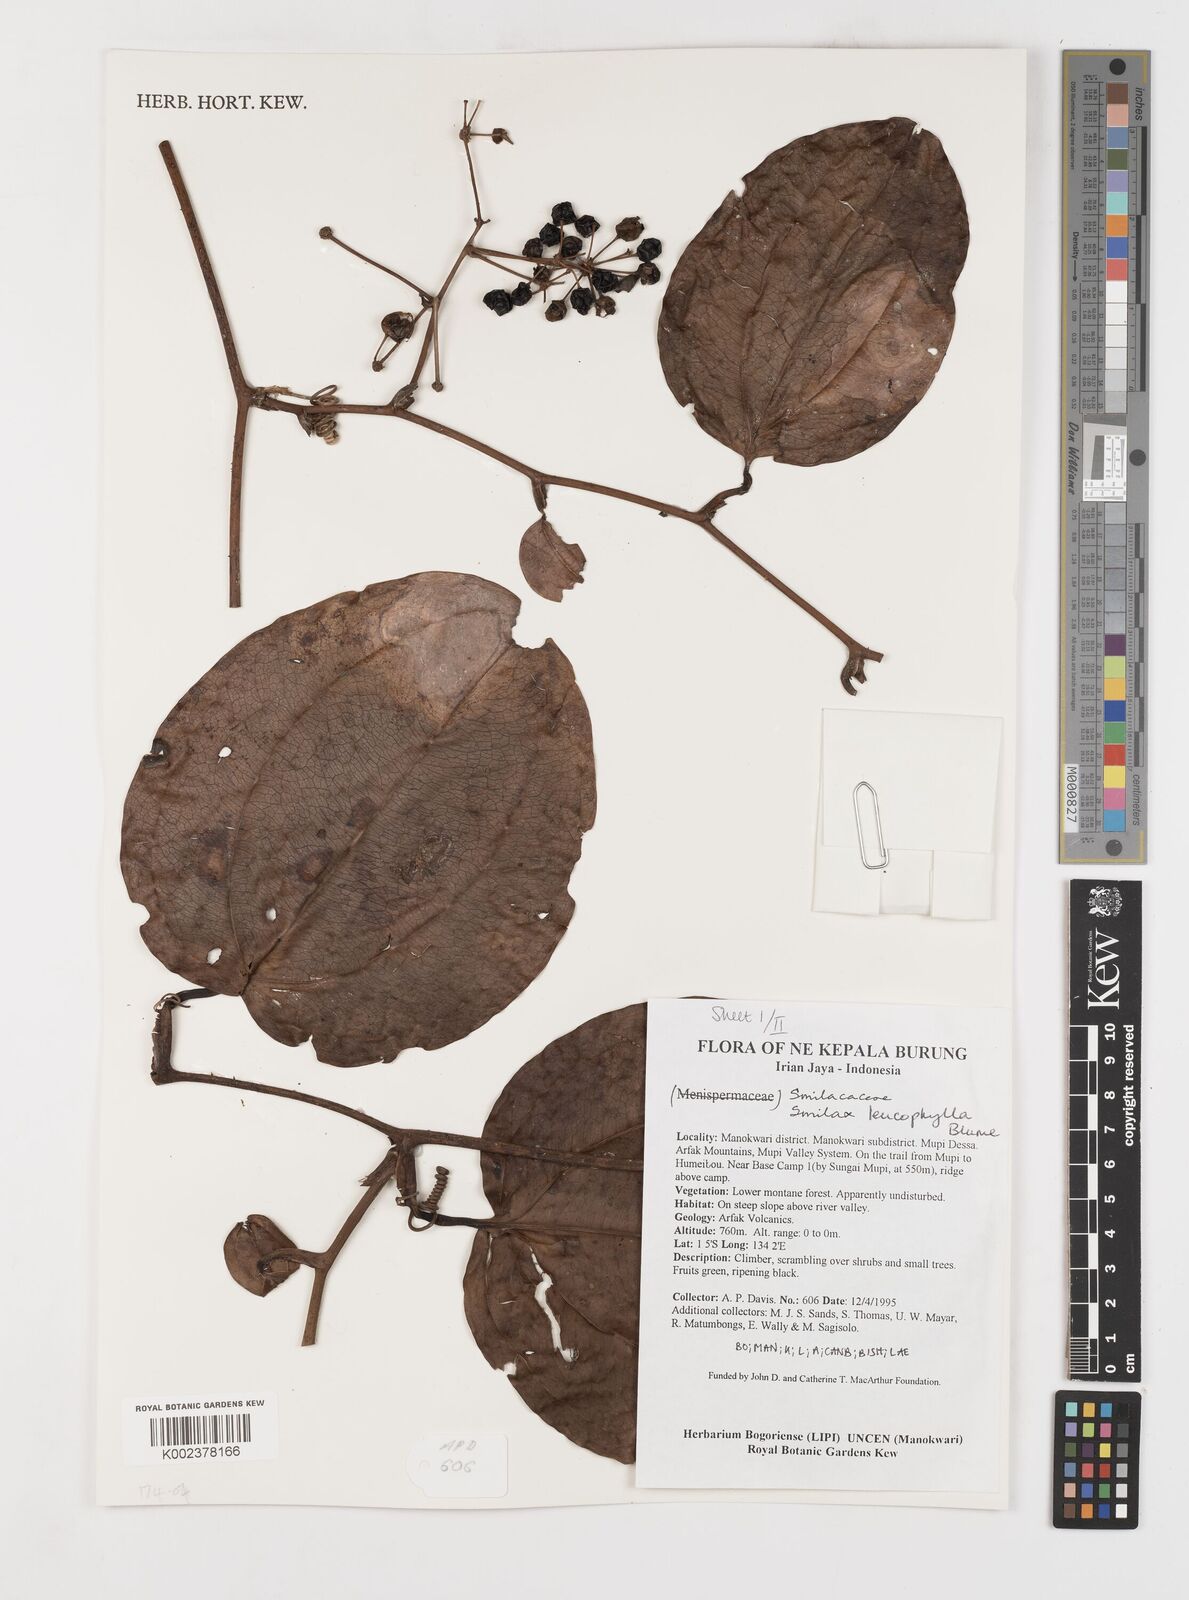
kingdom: Plantae
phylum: Tracheophyta
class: Liliopsida
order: Liliales
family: Smilacaceae
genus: Smilax
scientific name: Smilax leucophylla
